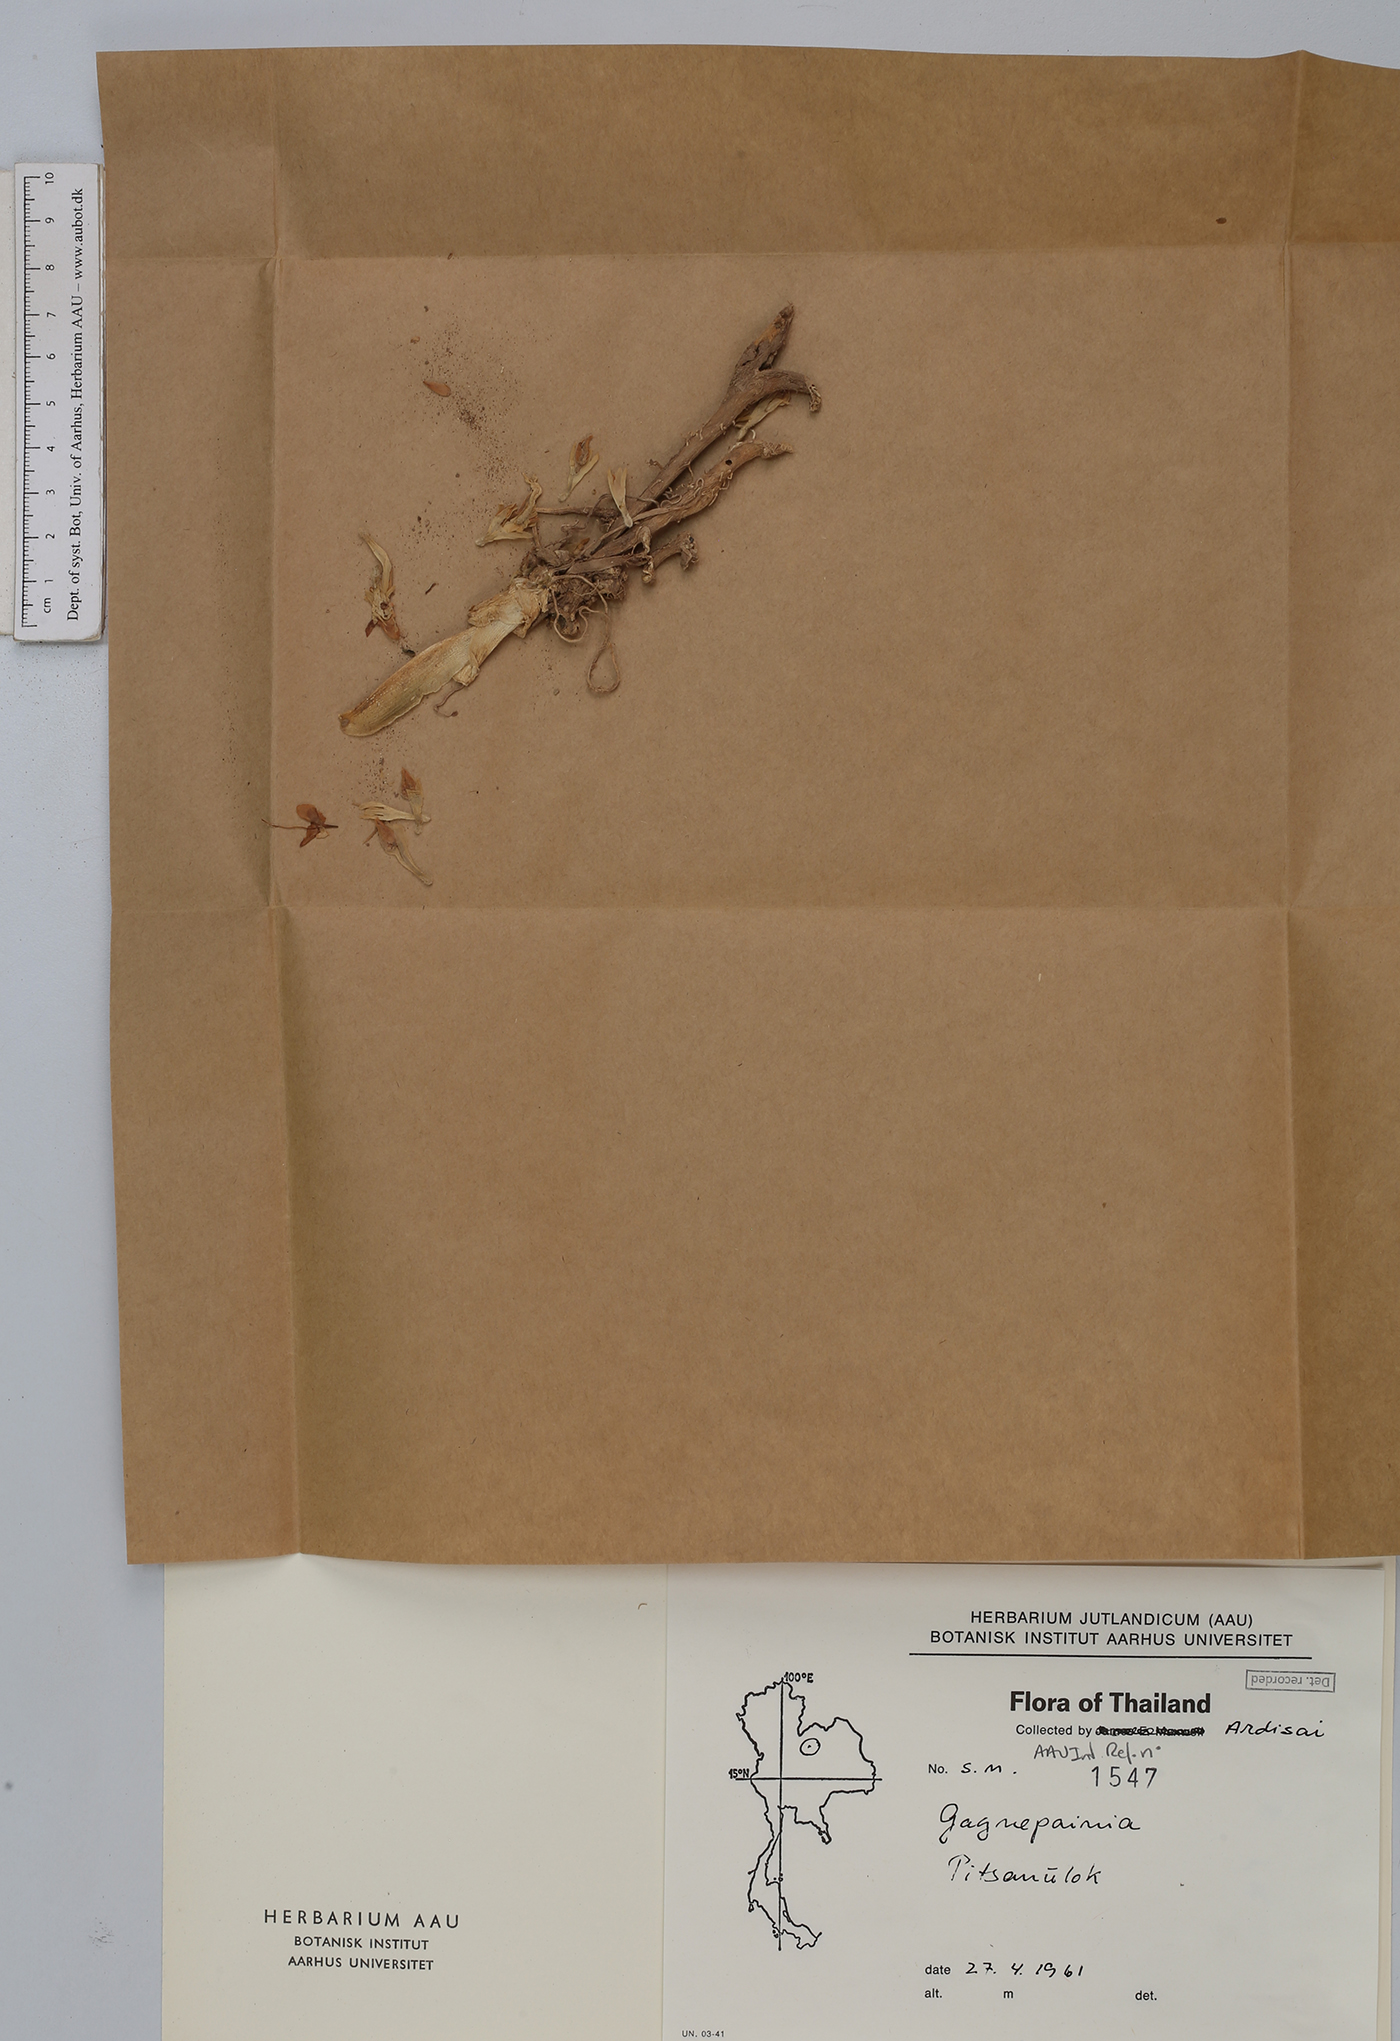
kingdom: Plantae
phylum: Tracheophyta
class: Liliopsida
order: Zingiberales
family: Zingiberaceae
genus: Gagnepainia
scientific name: Gagnepainia
